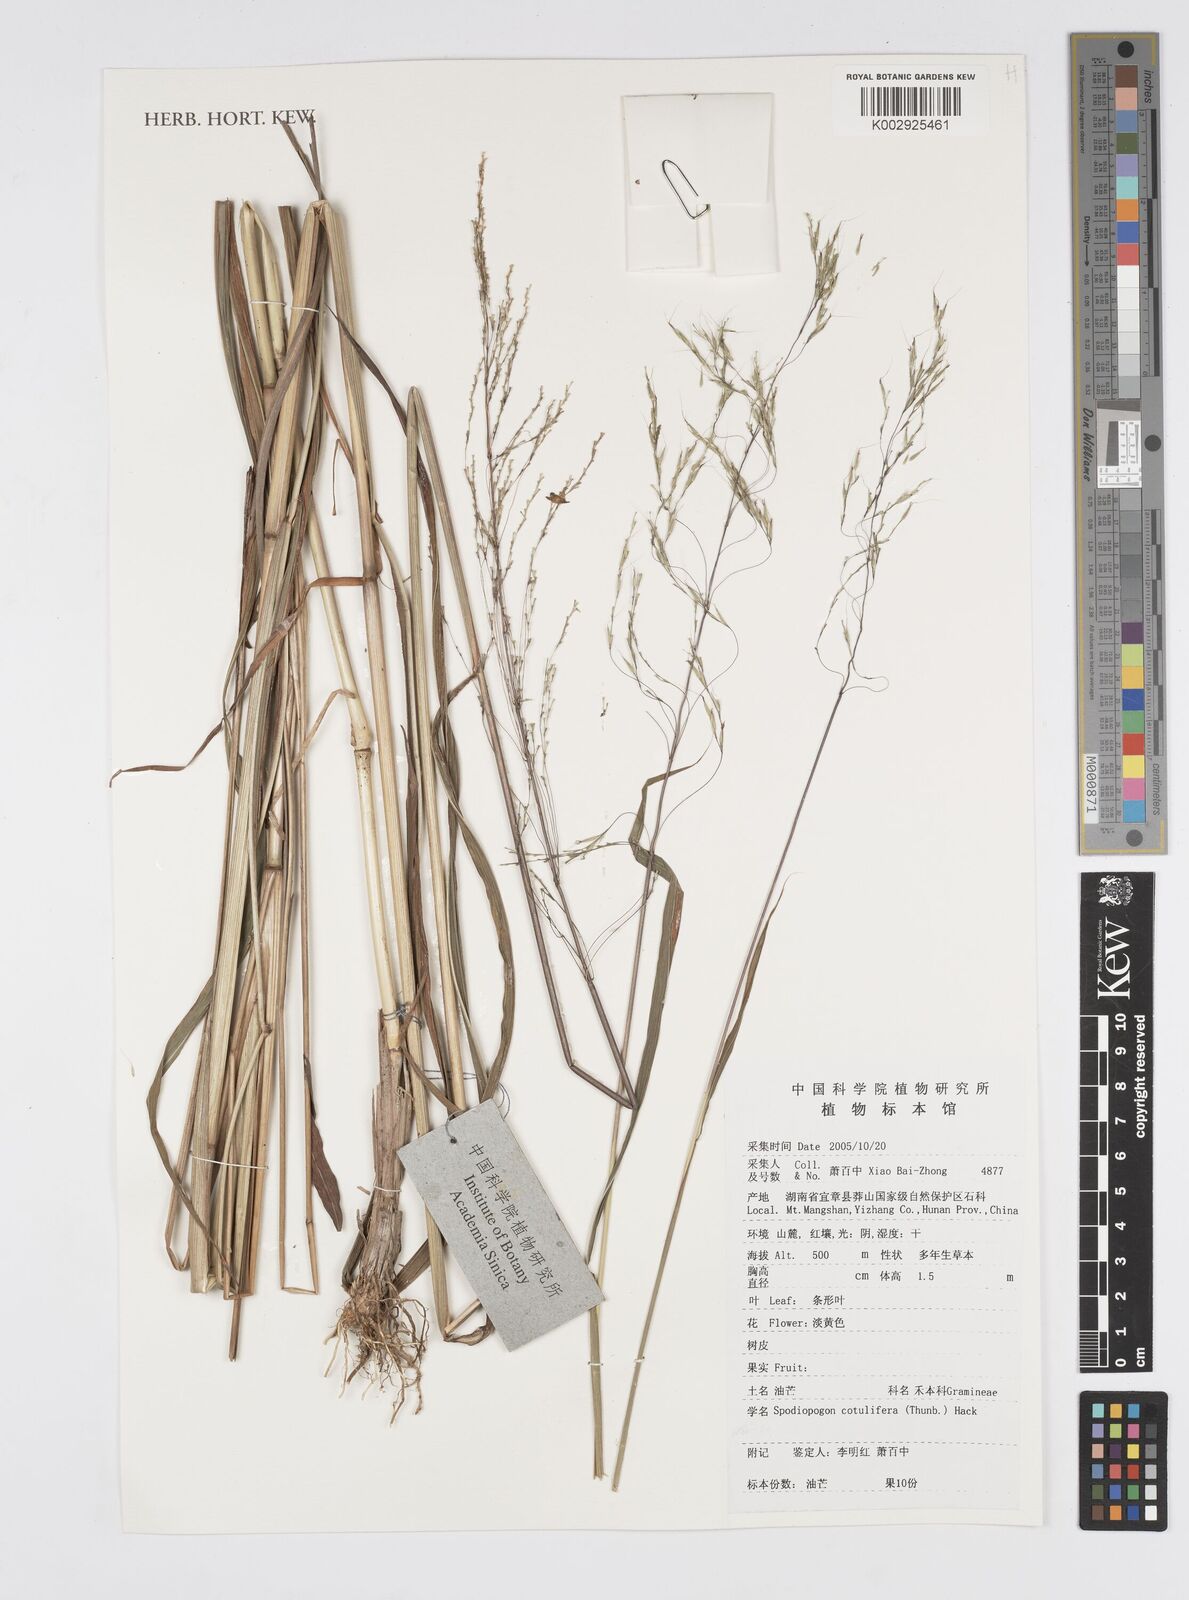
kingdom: Plantae
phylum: Tracheophyta
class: Liliopsida
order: Poales
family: Poaceae
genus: Spodiopogon
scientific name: Spodiopogon cotulifer
